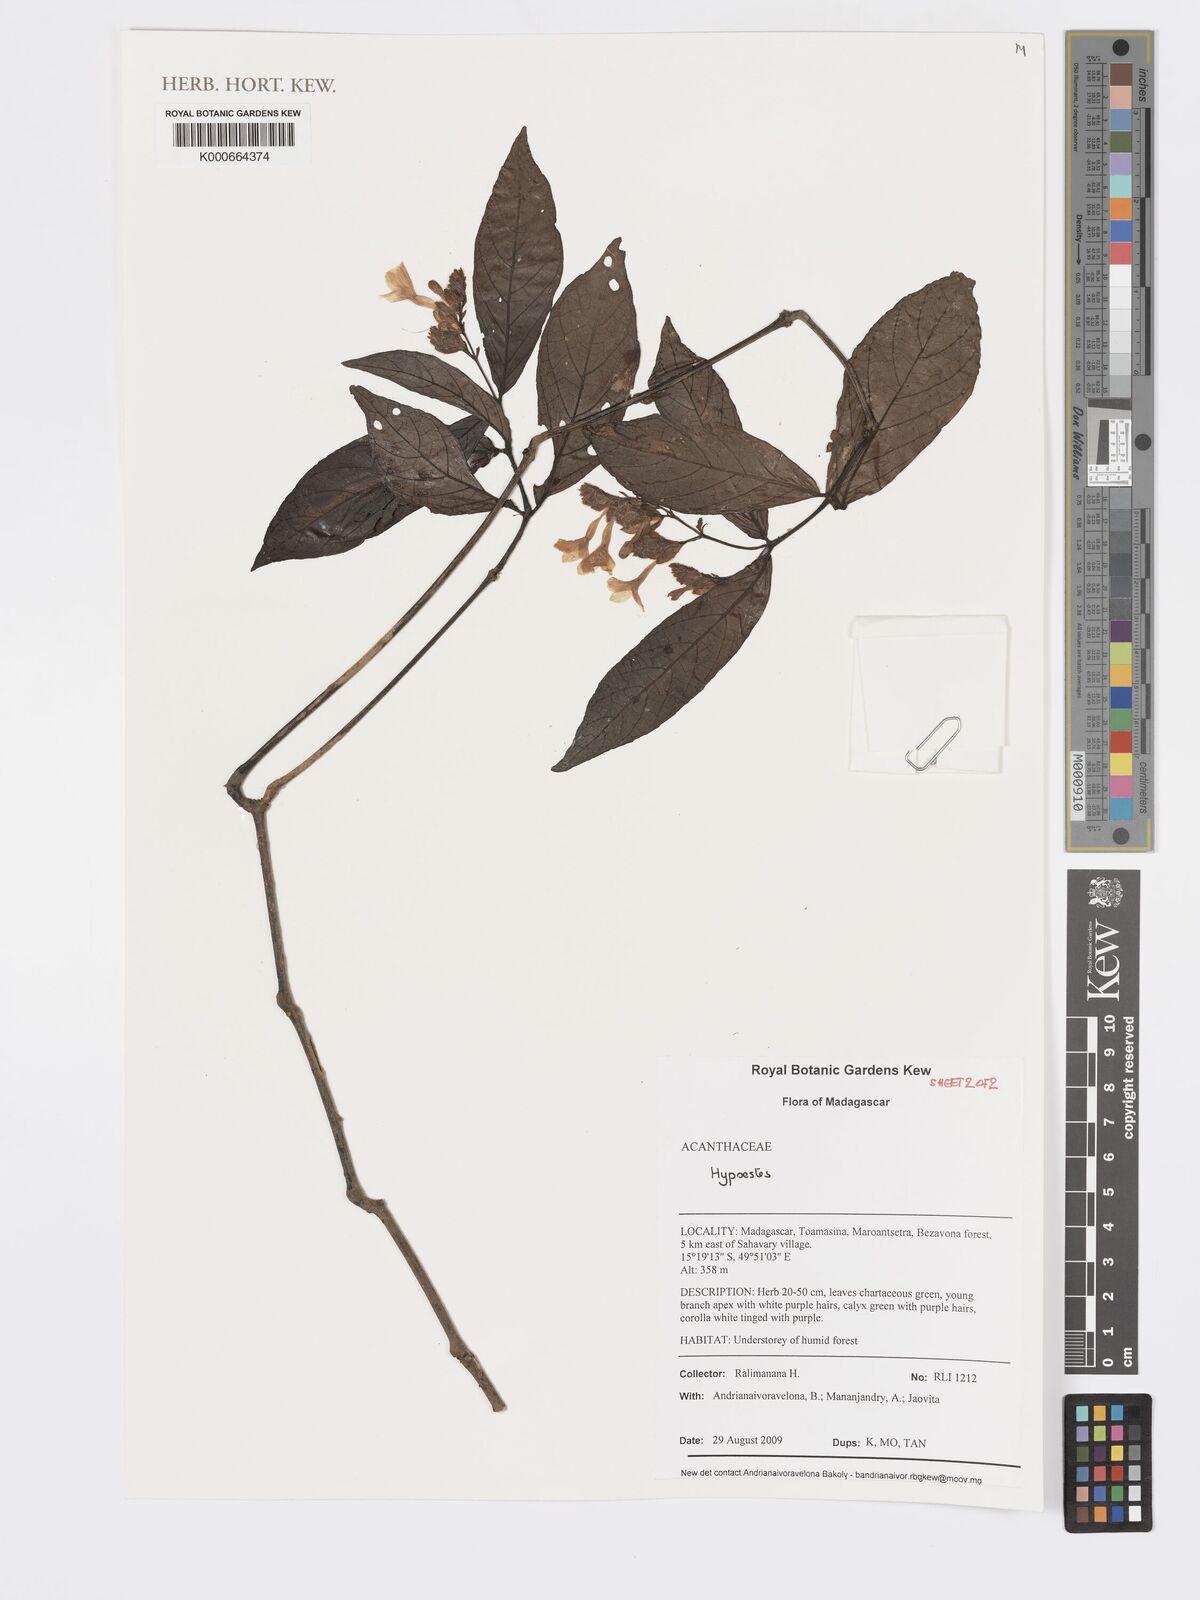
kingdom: Plantae
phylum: Tracheophyta
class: Magnoliopsida
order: Lamiales
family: Acanthaceae
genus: Hypoestes
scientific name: Hypoestes
